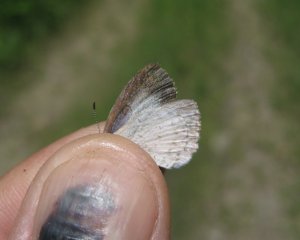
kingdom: Animalia
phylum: Arthropoda
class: Insecta
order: Lepidoptera
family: Lycaenidae
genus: Celastrina
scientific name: Celastrina serotina
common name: Cherry Gall Azure
